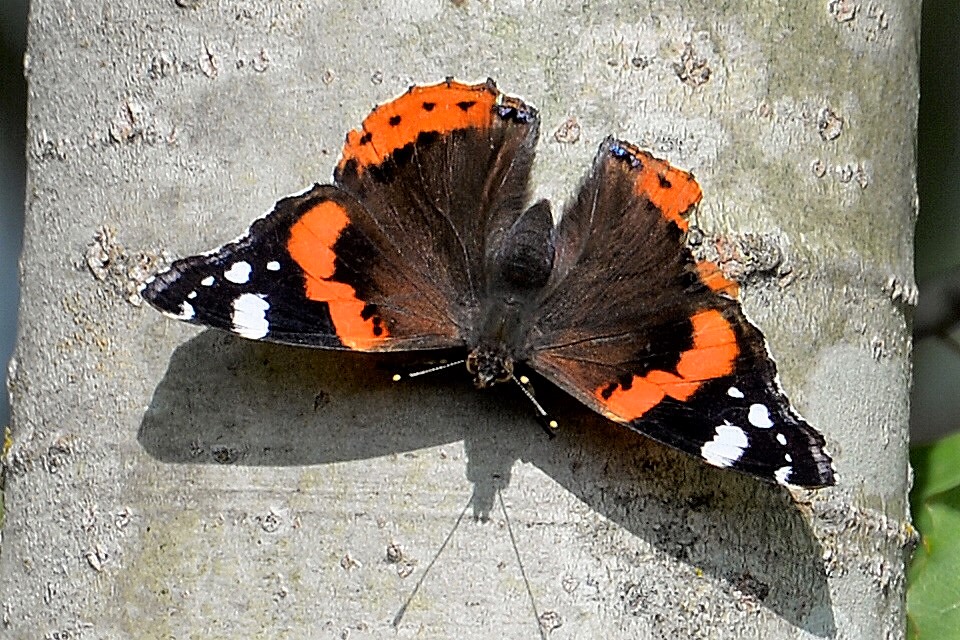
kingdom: Animalia
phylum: Arthropoda
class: Insecta
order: Lepidoptera
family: Nymphalidae
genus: Vanessa
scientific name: Vanessa atalanta
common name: Red admiral
